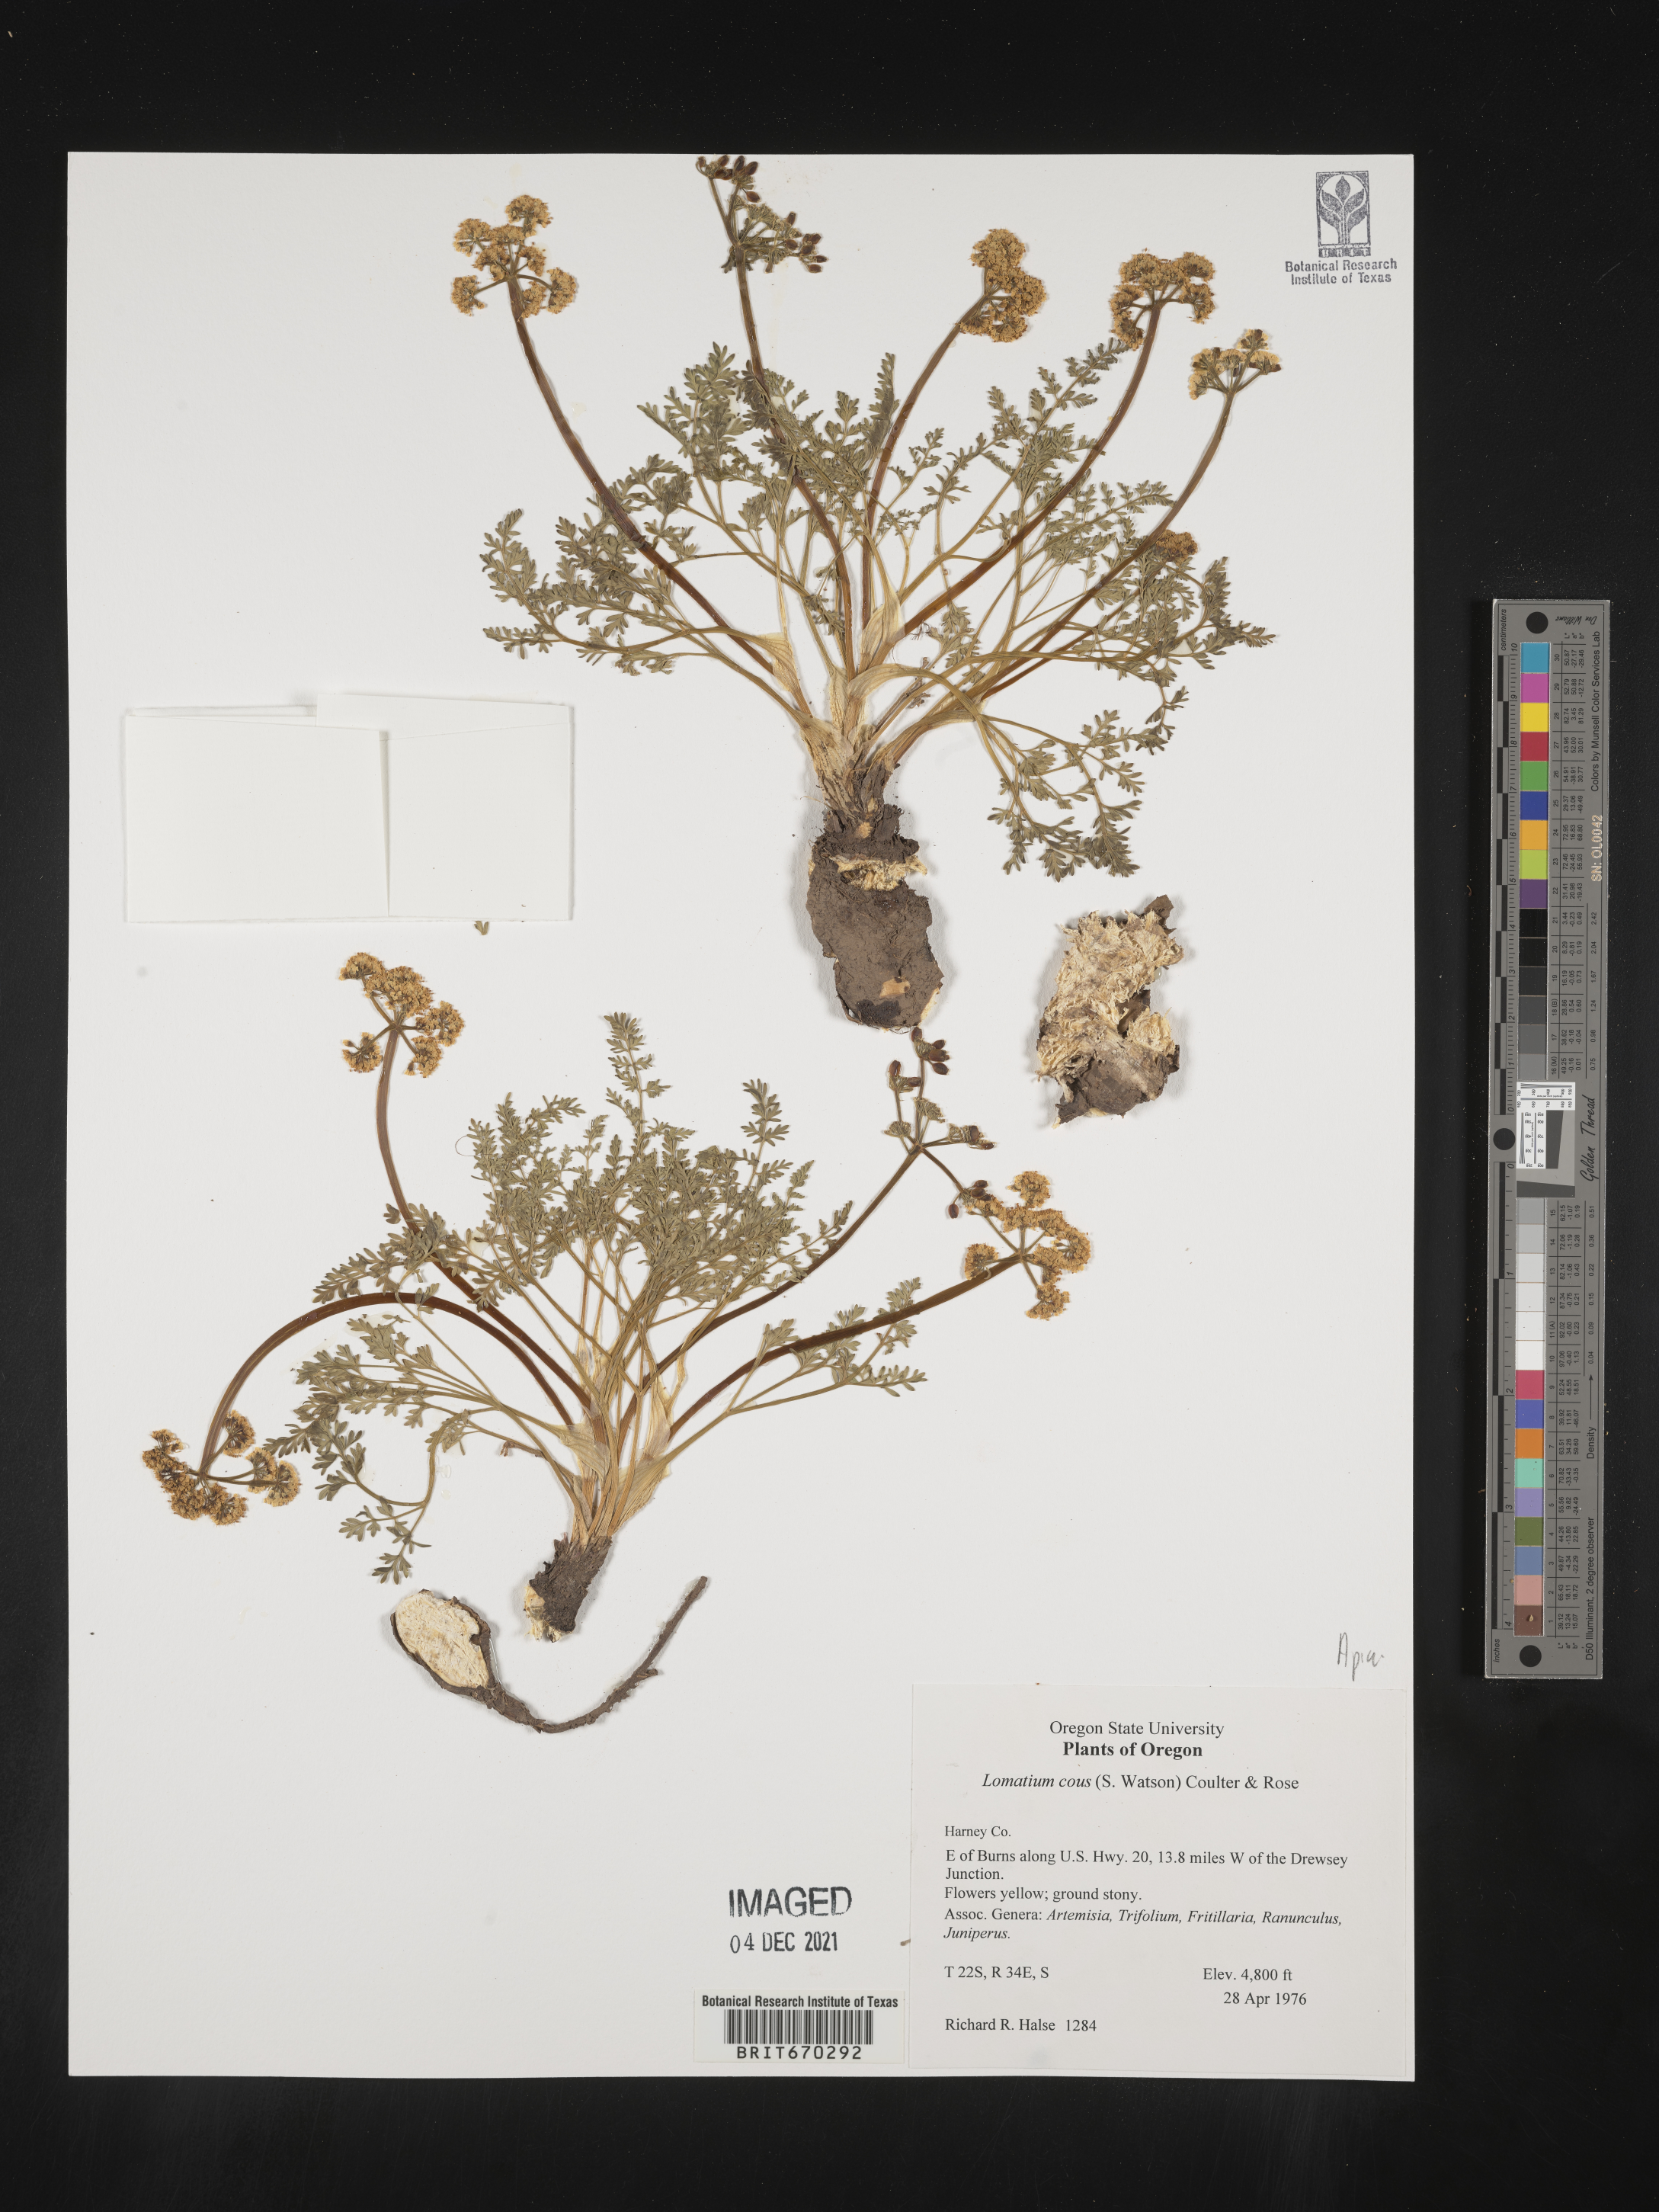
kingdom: Plantae
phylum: Tracheophyta
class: Magnoliopsida
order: Apiales
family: Apiaceae
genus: Lomatium
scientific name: Lomatium cous
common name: Biscuit-root
